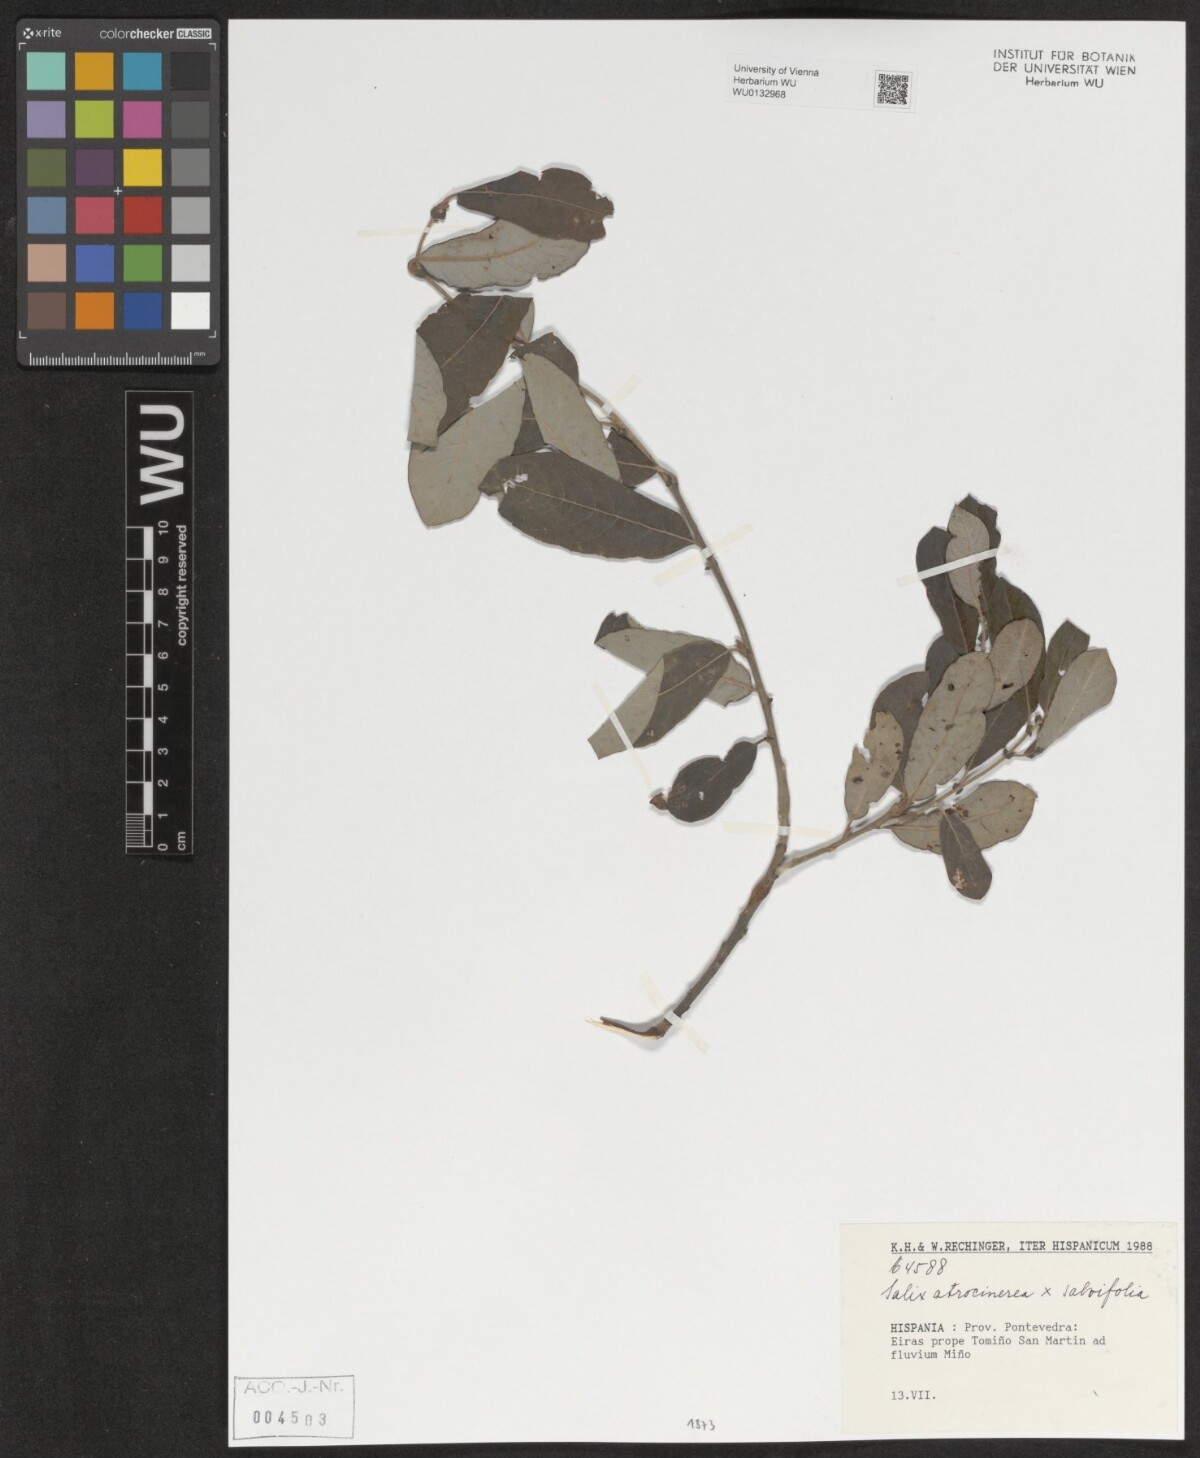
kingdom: Plantae
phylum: Tracheophyta
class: Magnoliopsida
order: Malpighiales
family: Salicaceae
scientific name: Salicaceae
